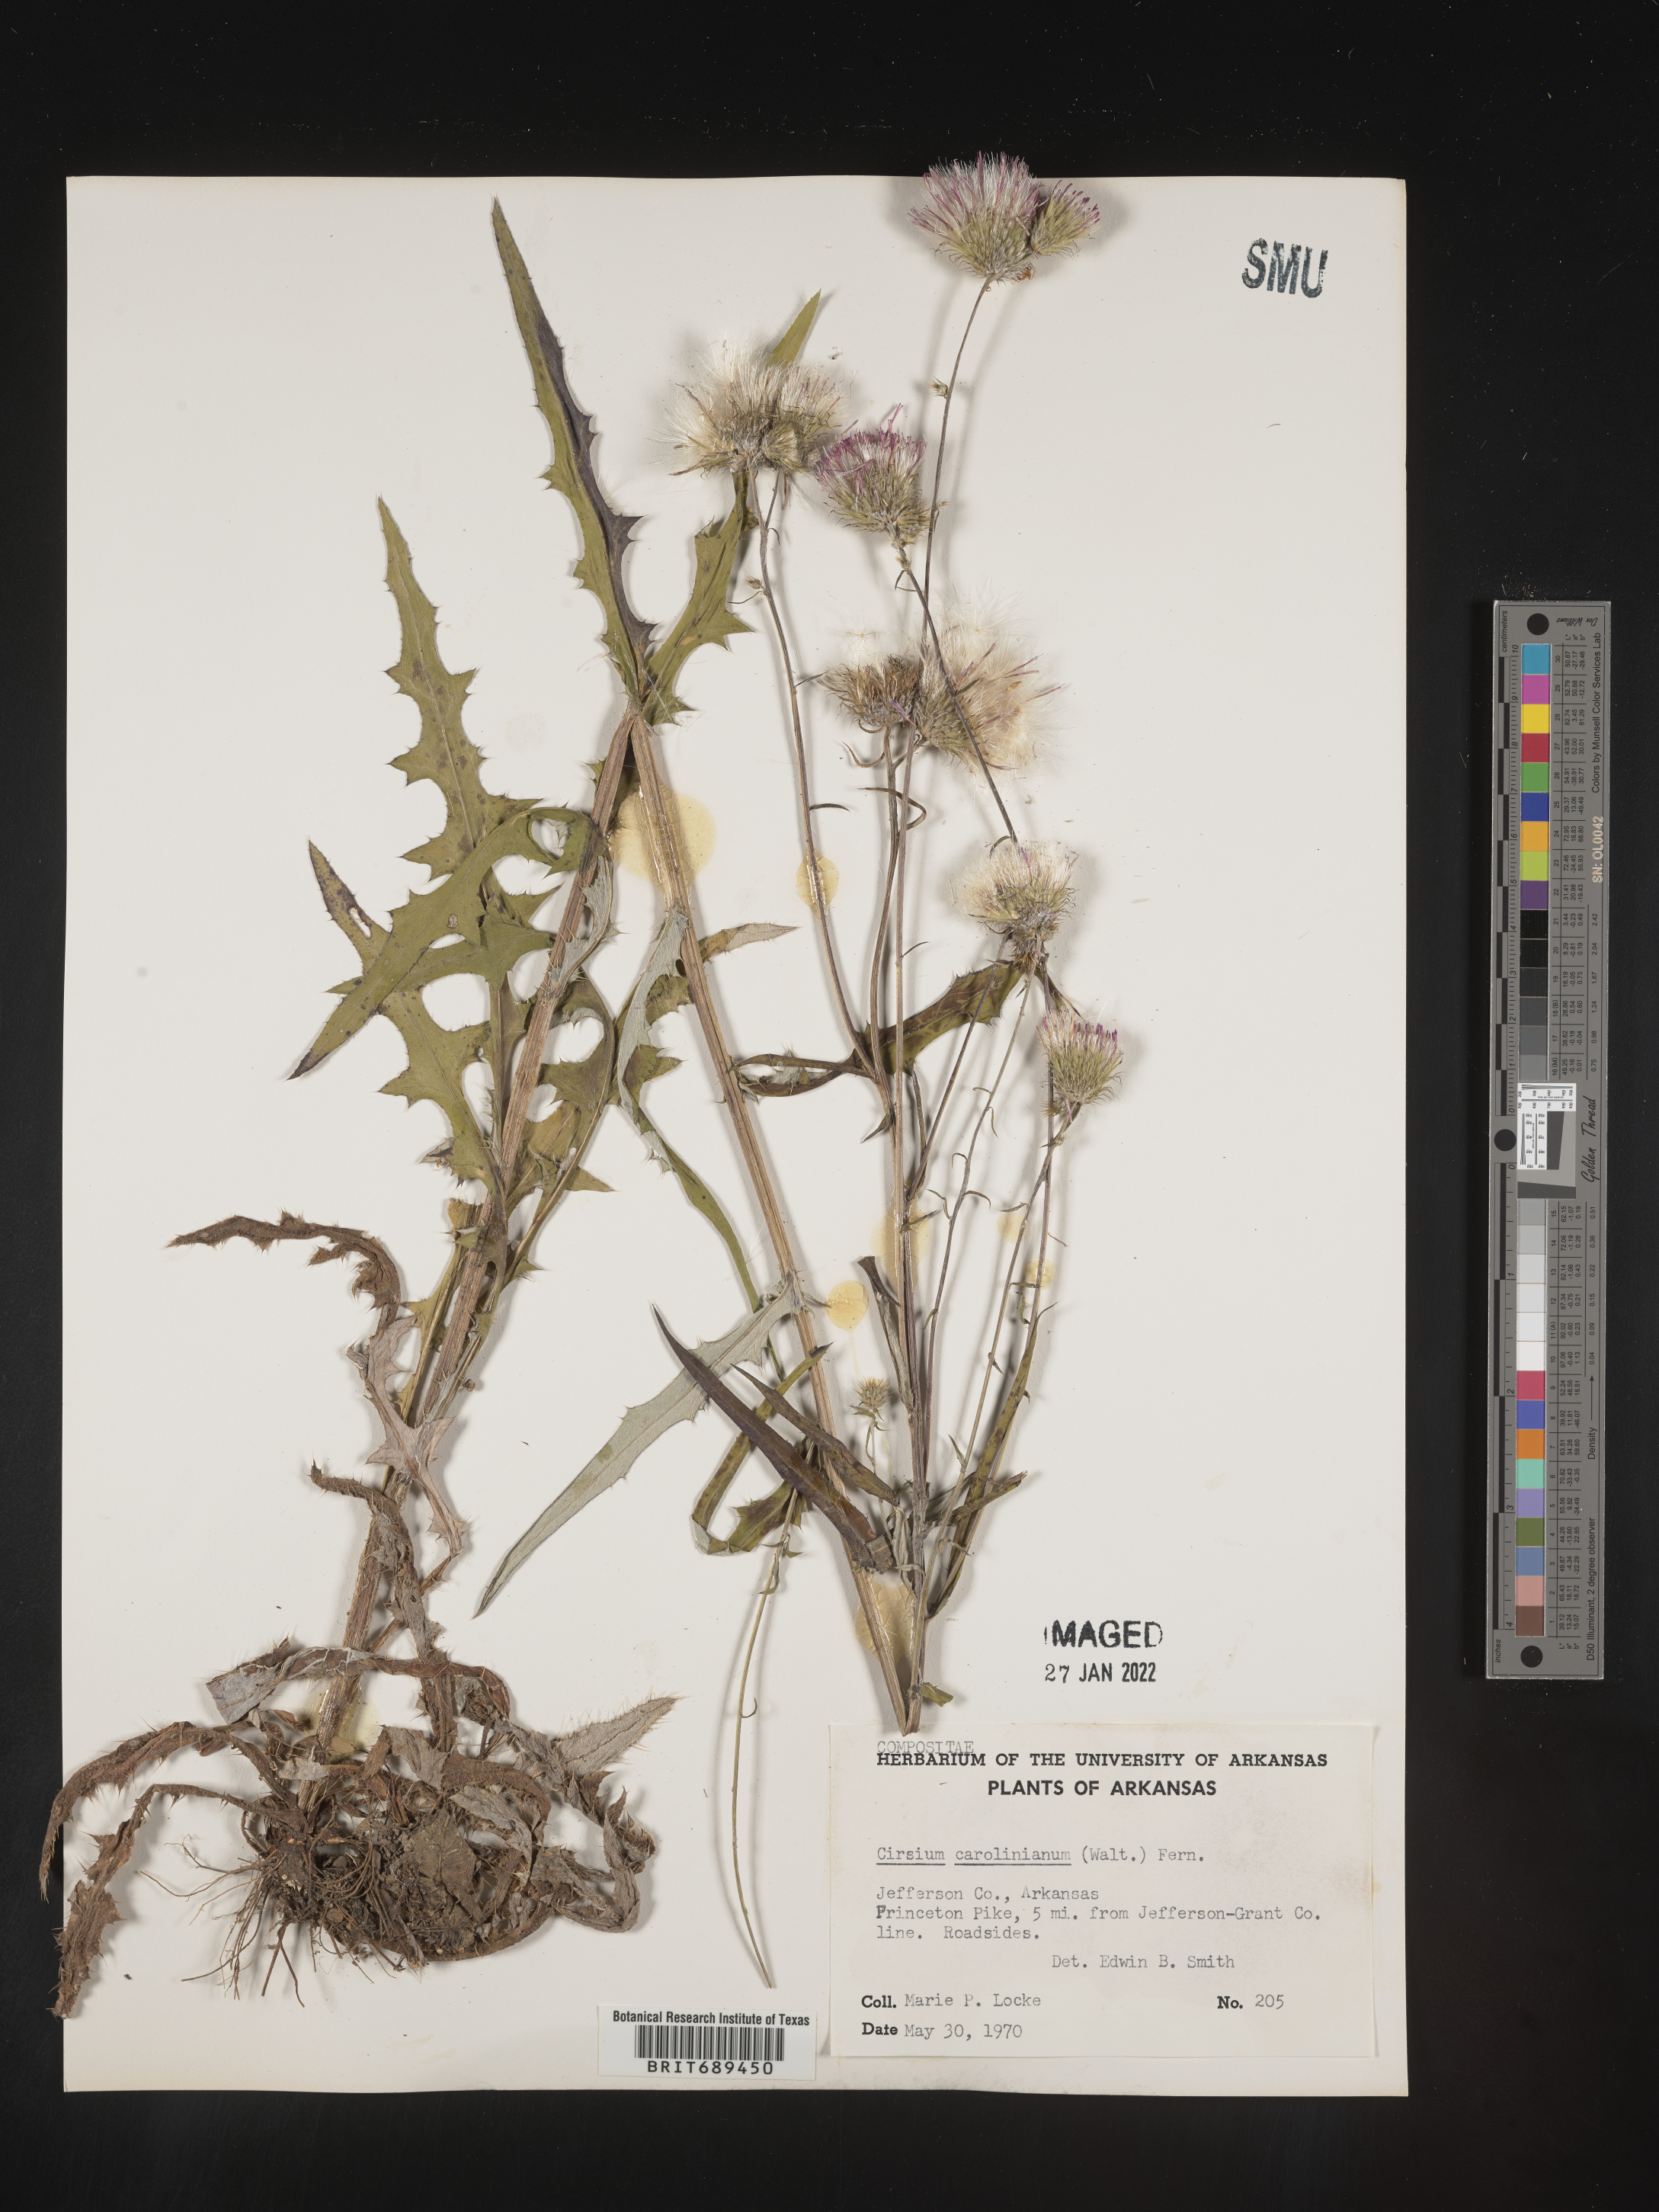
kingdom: Plantae
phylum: Tracheophyta
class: Magnoliopsida
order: Asterales
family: Asteraceae
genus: Cirsium
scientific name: Cirsium carolinianum
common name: Carolina thistle
